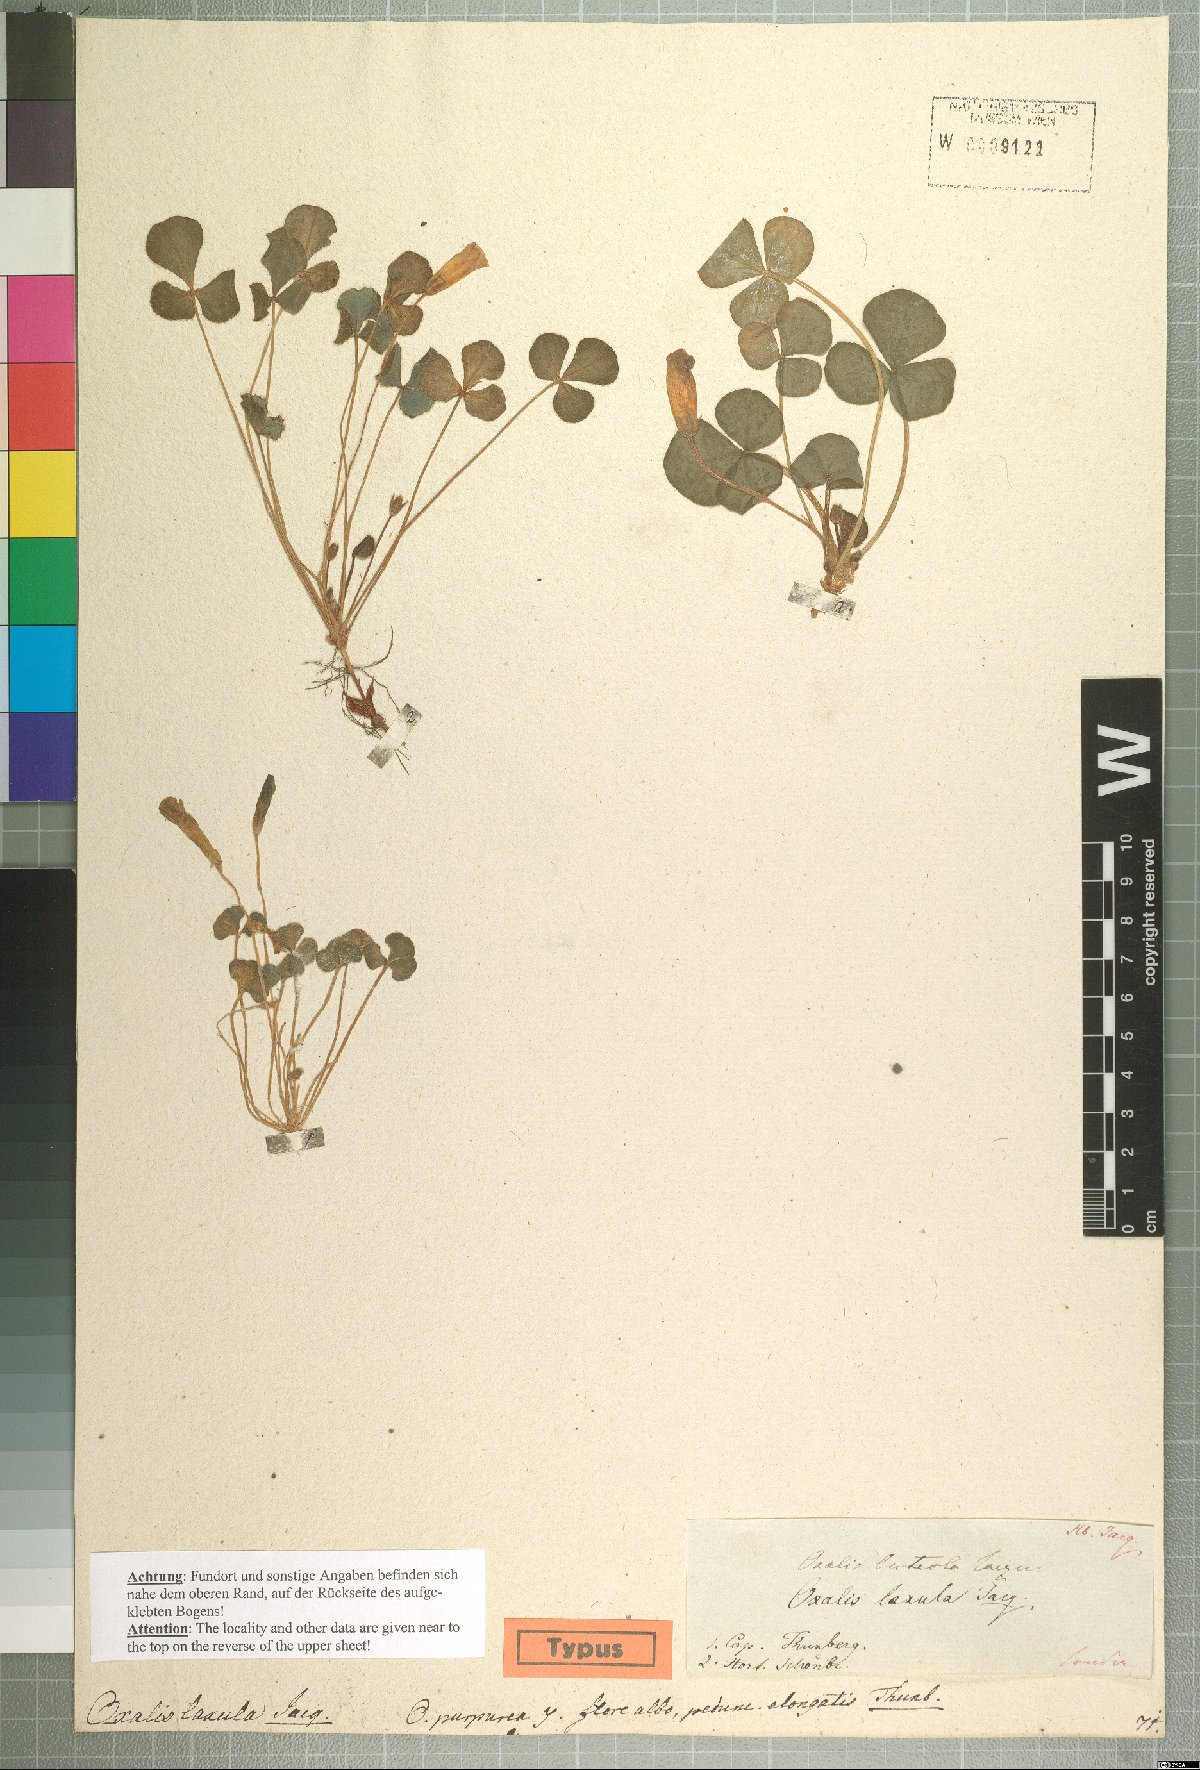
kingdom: Plantae
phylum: Tracheophyta
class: Magnoliopsida
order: Oxalidales
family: Oxalidaceae
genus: Oxalis
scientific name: Oxalis purpurea
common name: Purple woodsorrel
